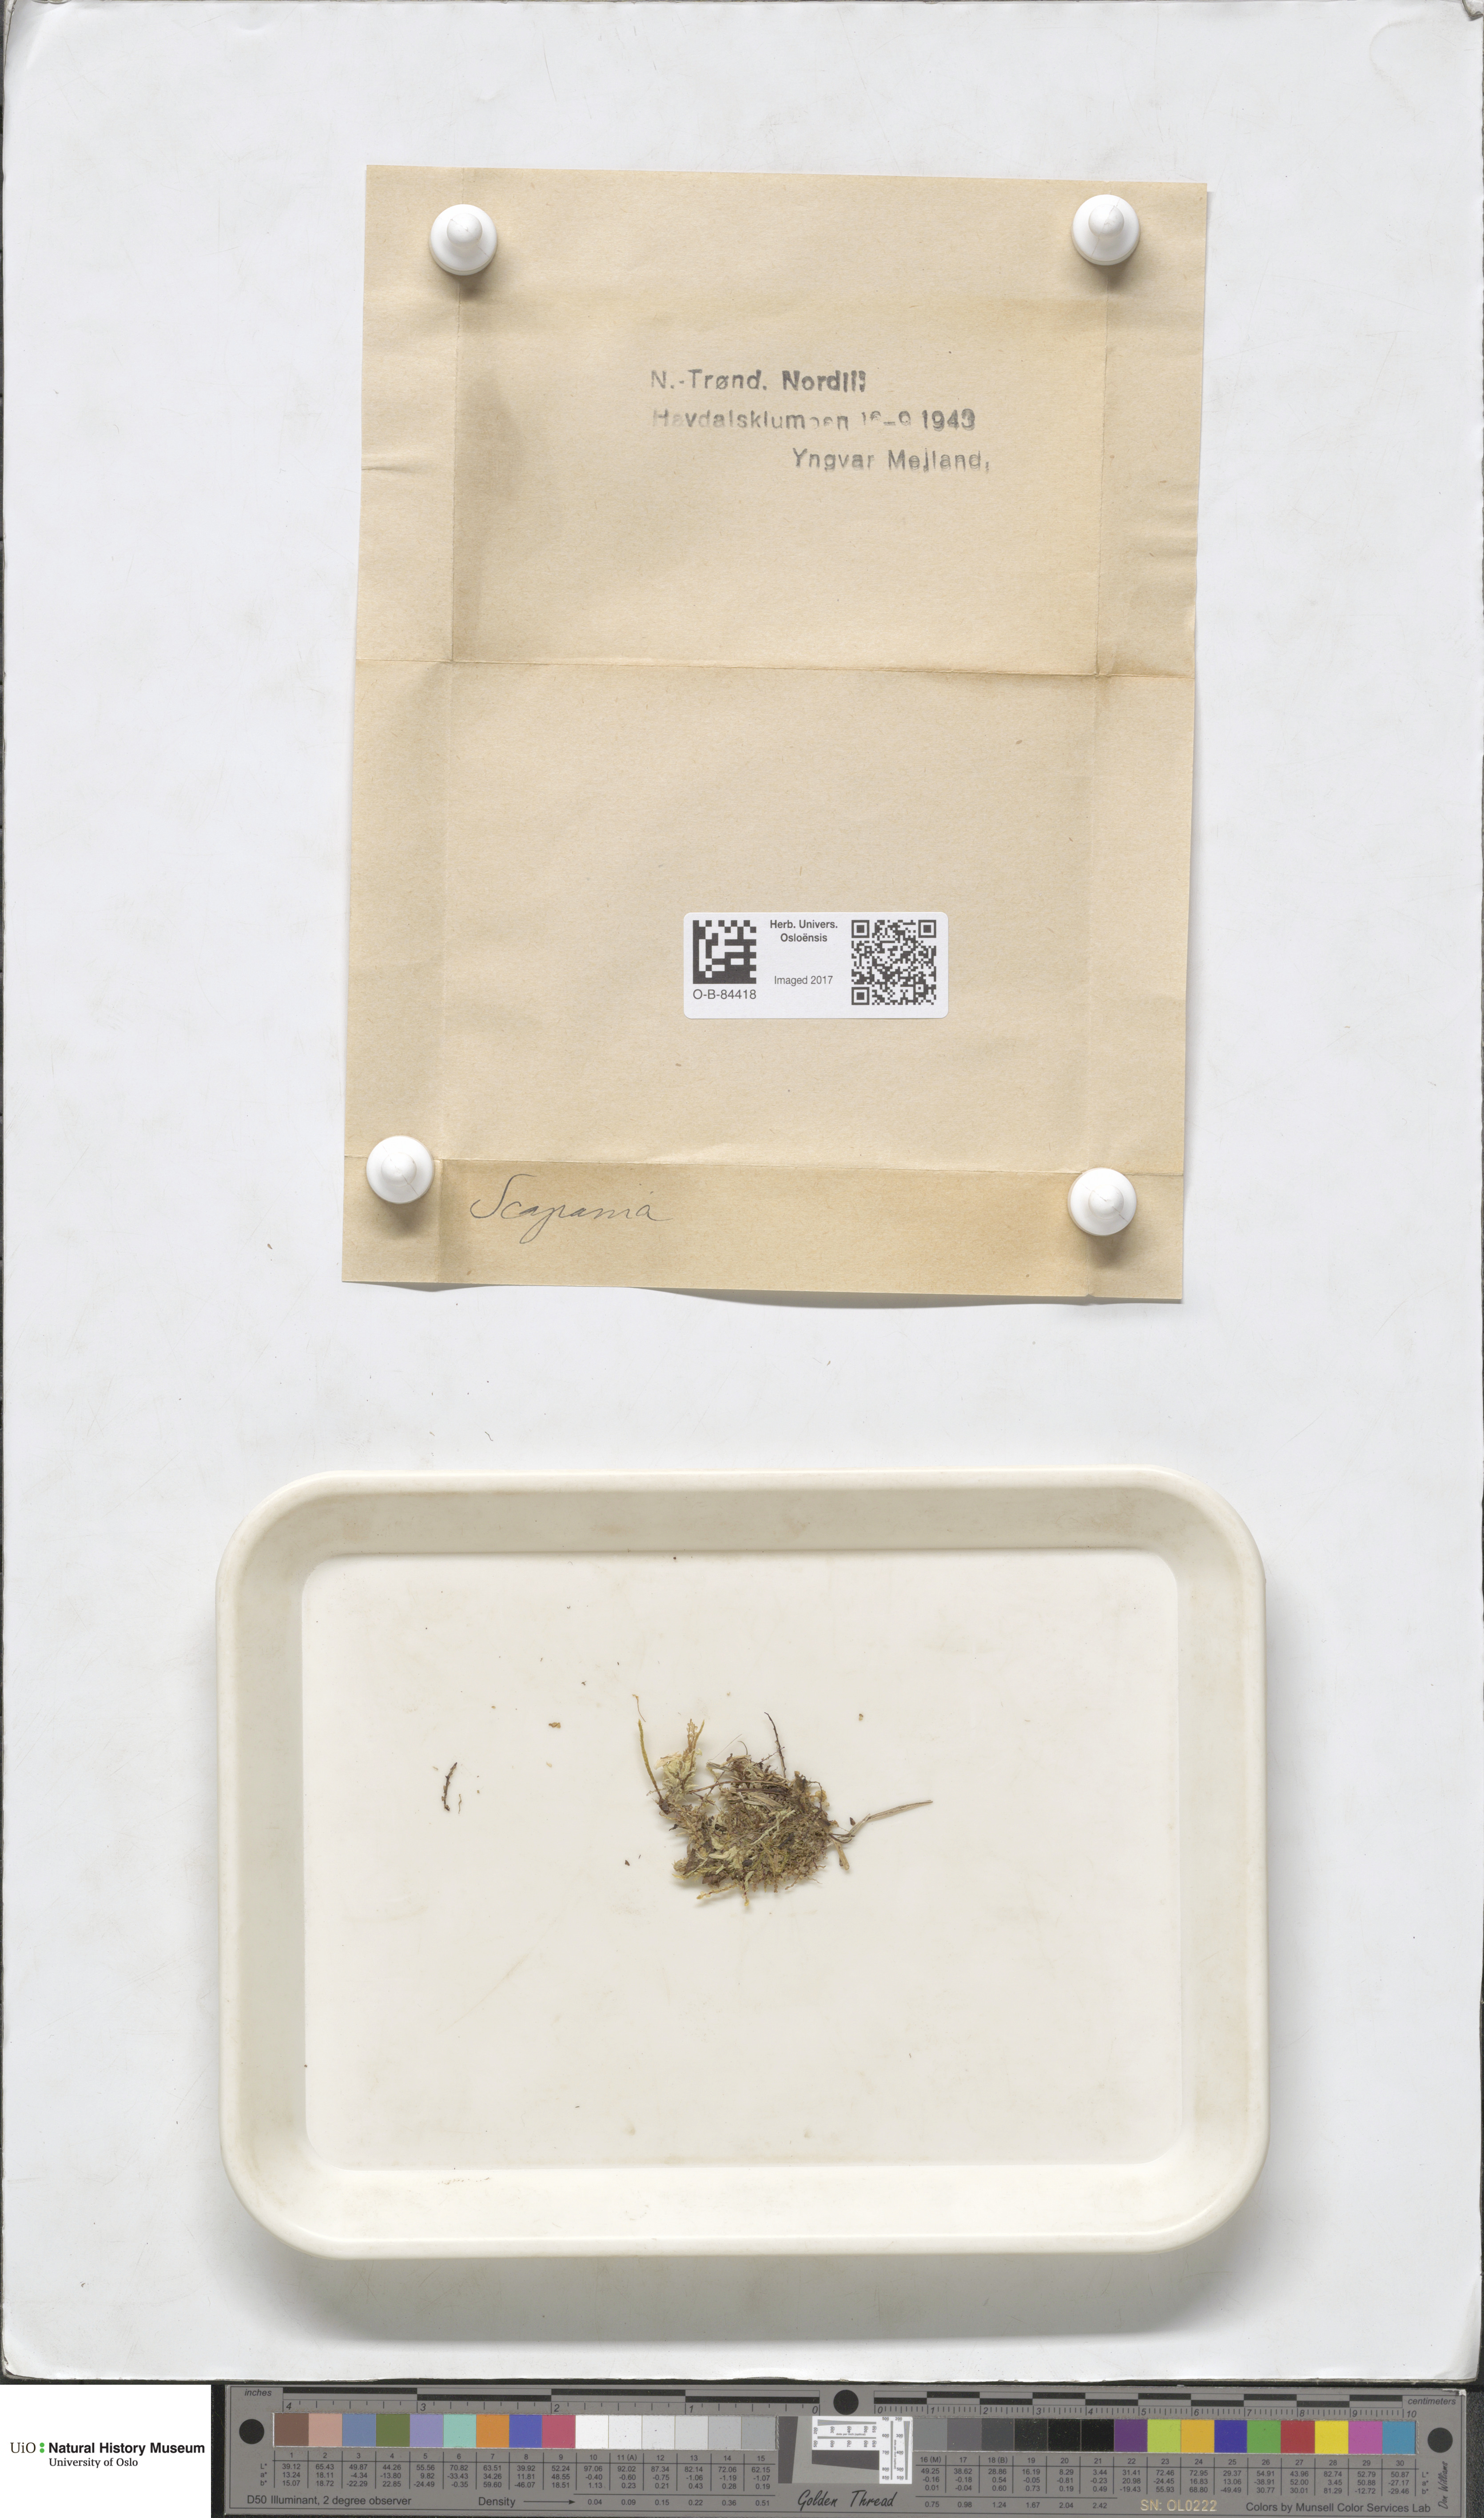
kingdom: Plantae
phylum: Marchantiophyta
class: Jungermanniopsida
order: Jungermanniales
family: Scapaniaceae
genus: Scapania
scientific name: Scapania
